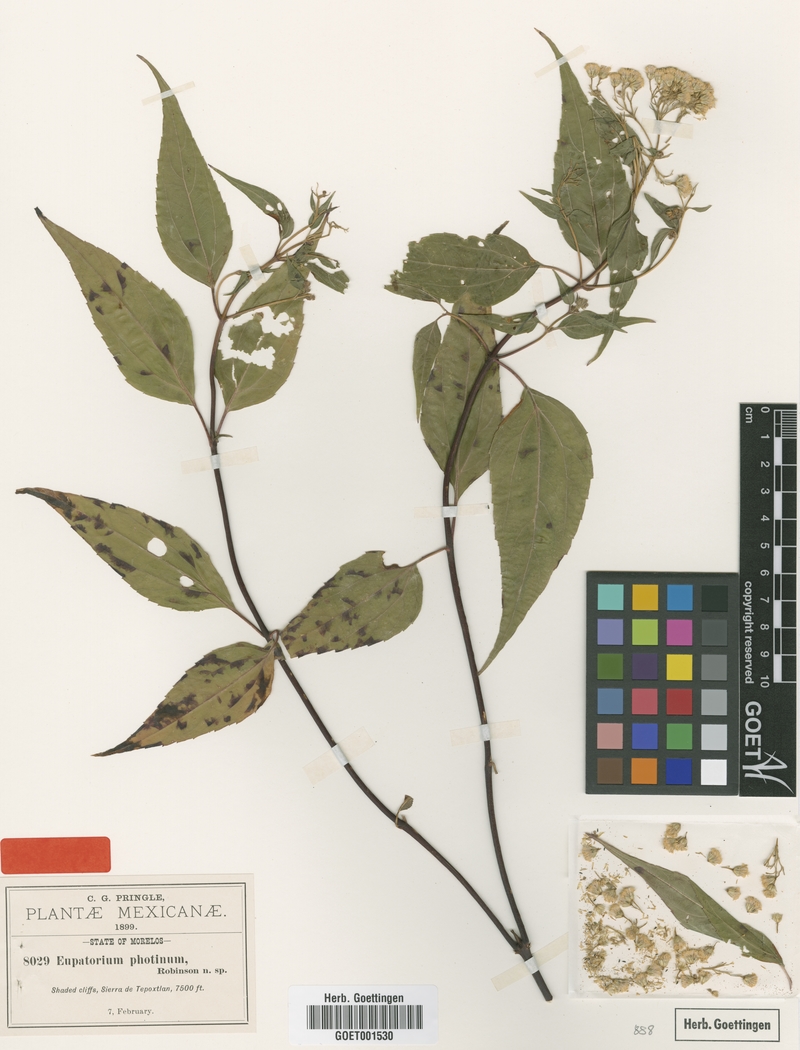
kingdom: Plantae
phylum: Tracheophyta
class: Magnoliopsida
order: Asterales
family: Asteraceae
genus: Ageratina
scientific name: Ageratina photina
